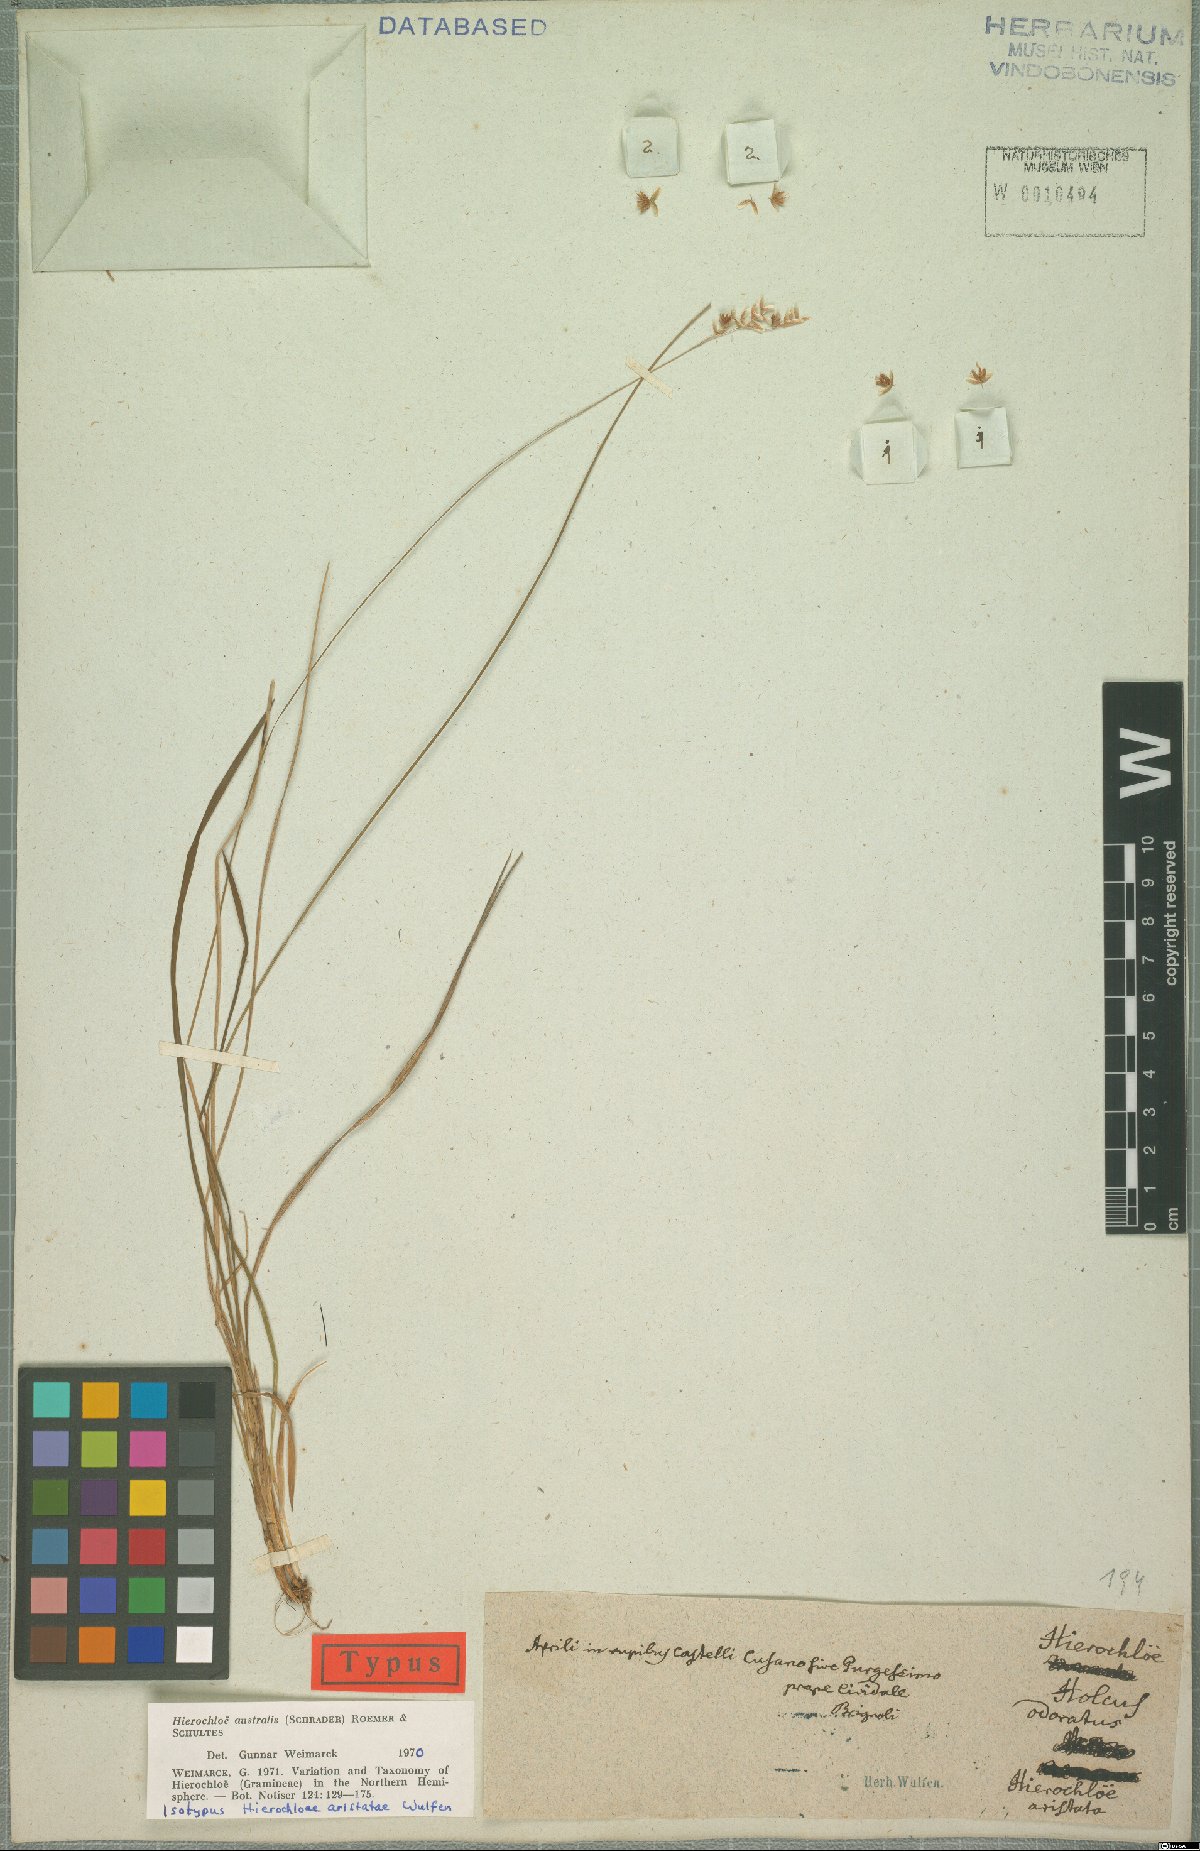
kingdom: Plantae
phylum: Tracheophyta
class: Liliopsida
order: Poales
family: Poaceae
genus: Anthoxanthum
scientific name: Anthoxanthum australe
